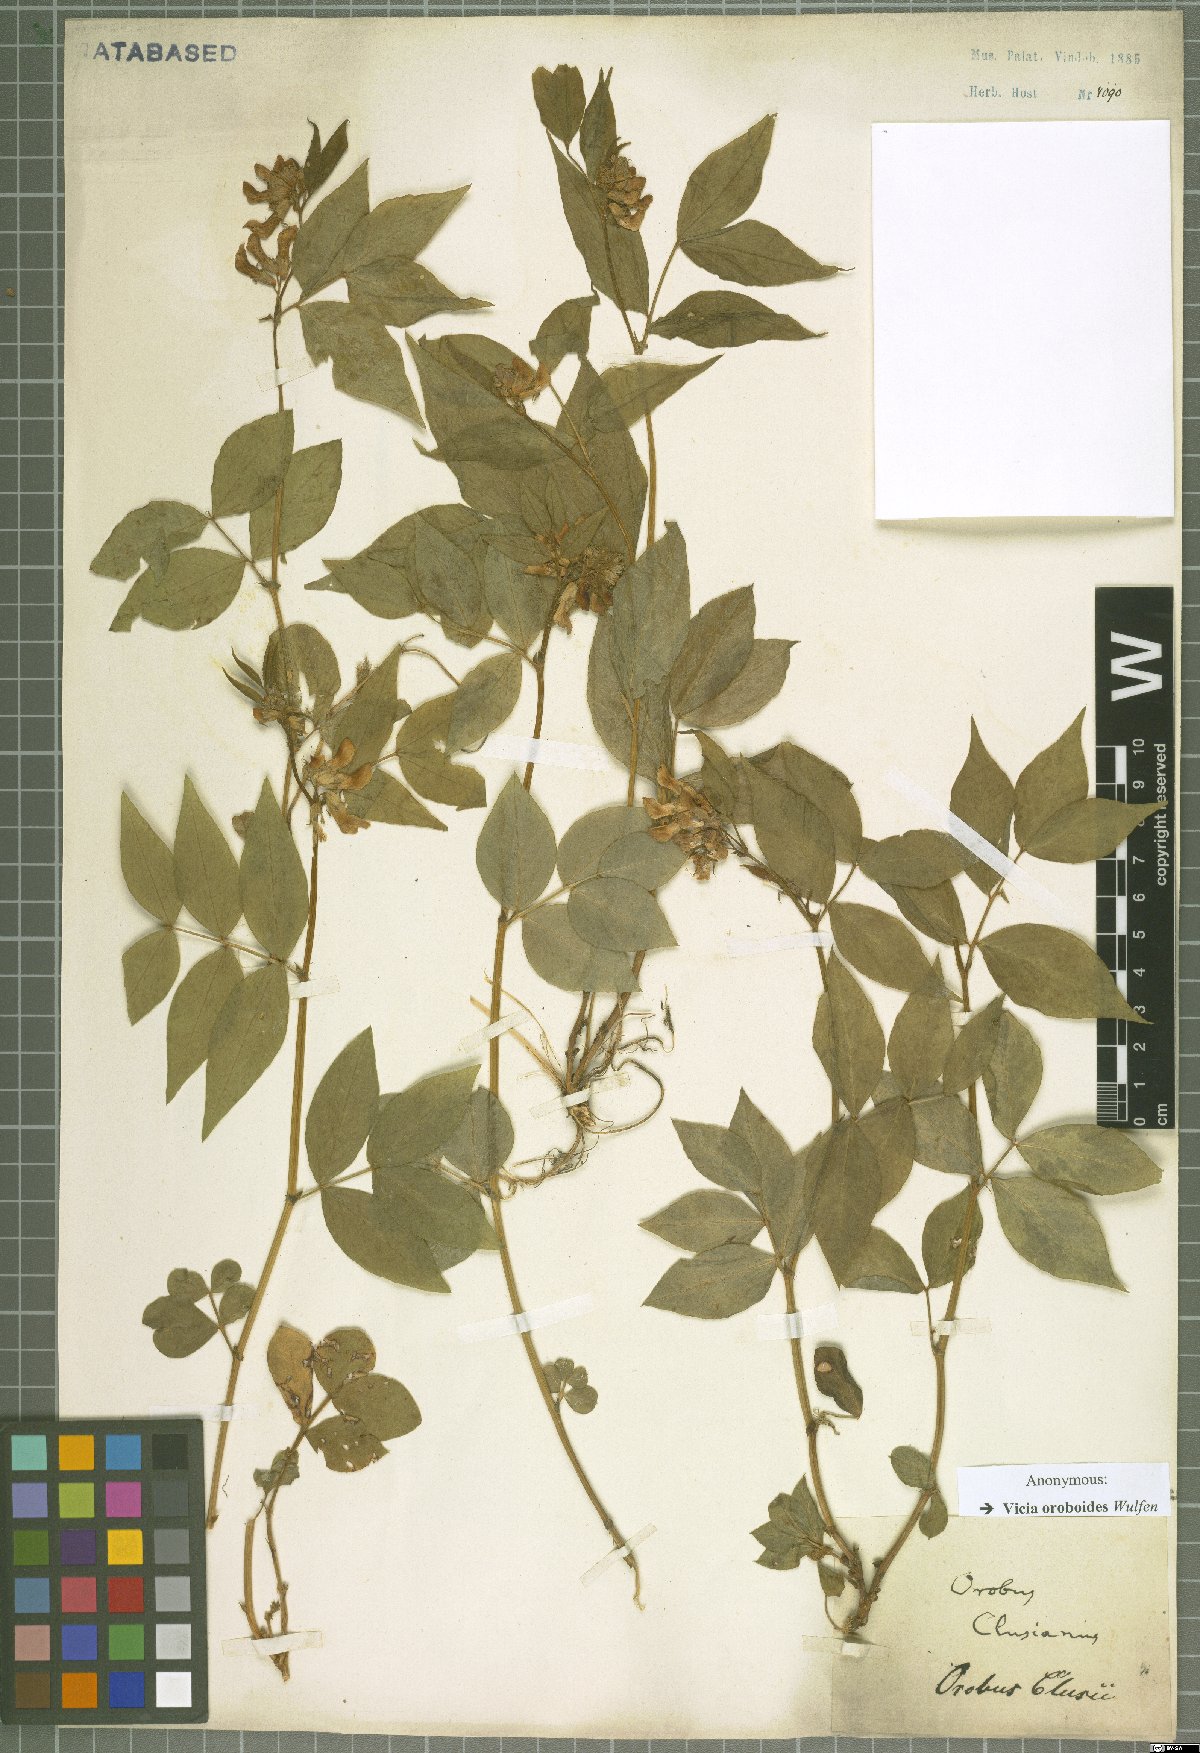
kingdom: Plantae
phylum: Tracheophyta
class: Magnoliopsida
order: Fabales
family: Fabaceae
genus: Vicia
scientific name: Vicia oroboides
